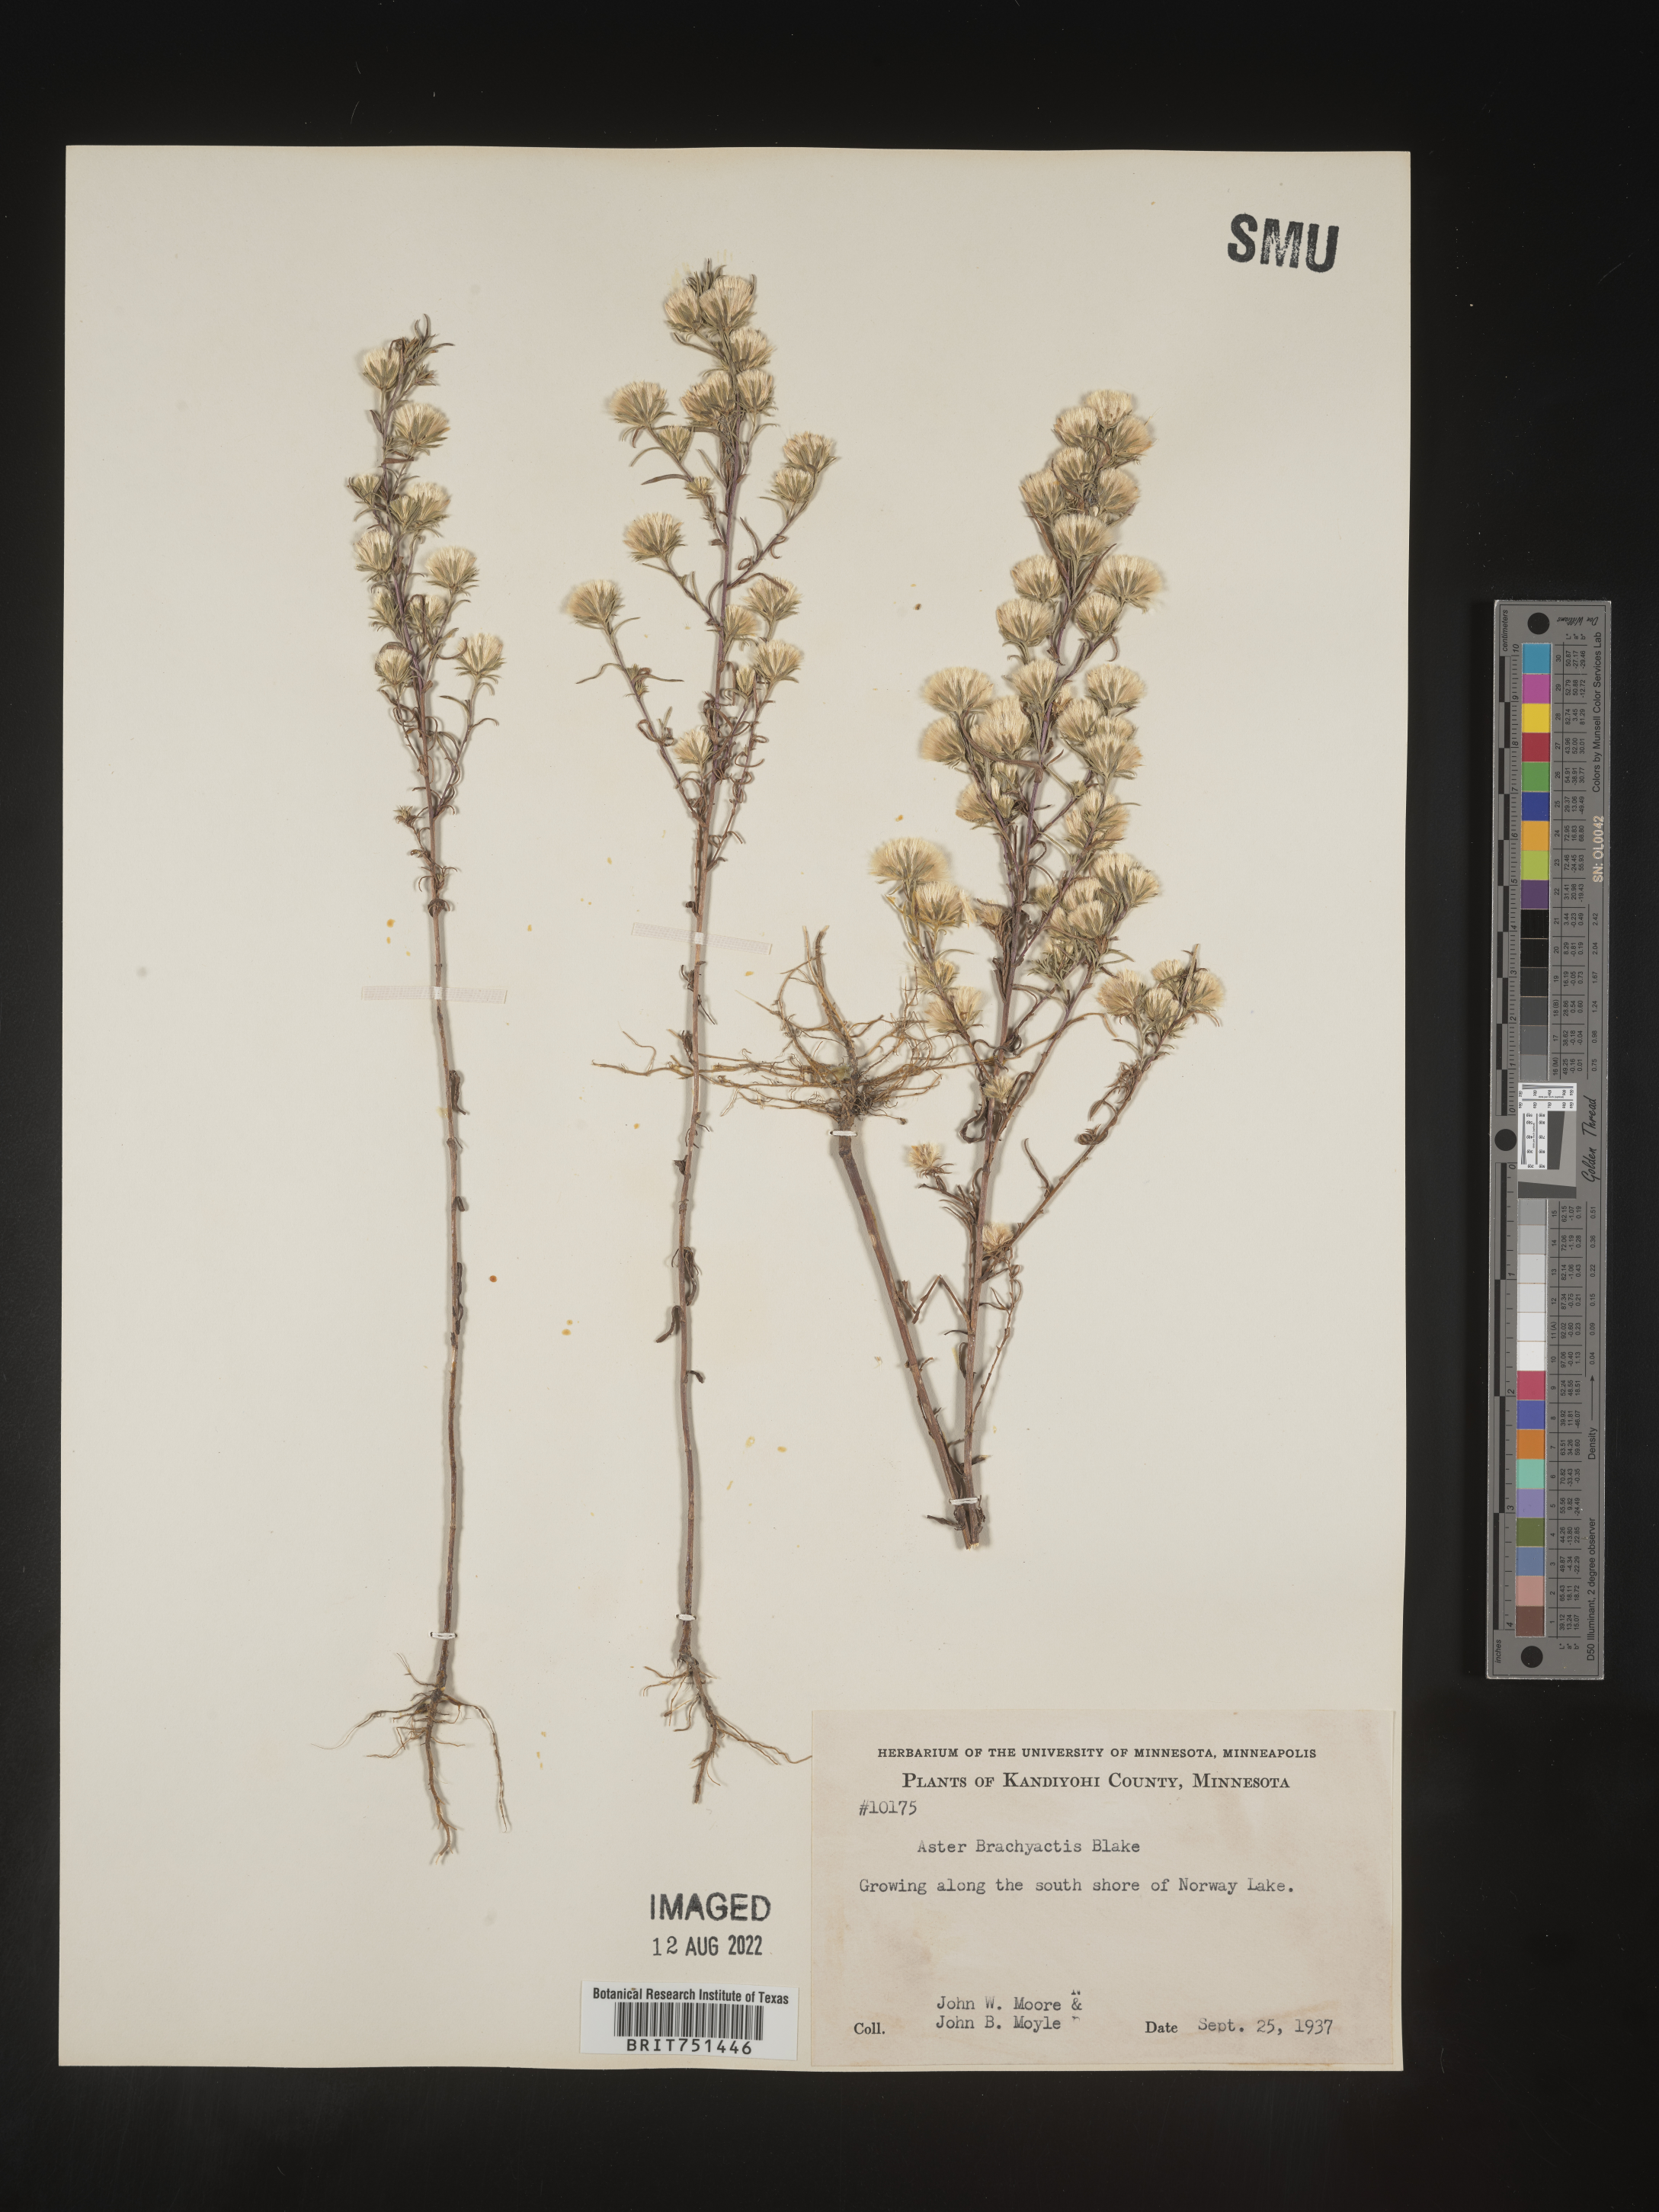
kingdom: Plantae
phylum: Tracheophyta
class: Magnoliopsida
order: Asterales
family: Asteraceae
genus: Symphyotrichum
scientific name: Symphyotrichum ciliatum
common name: Rayless annual aster
